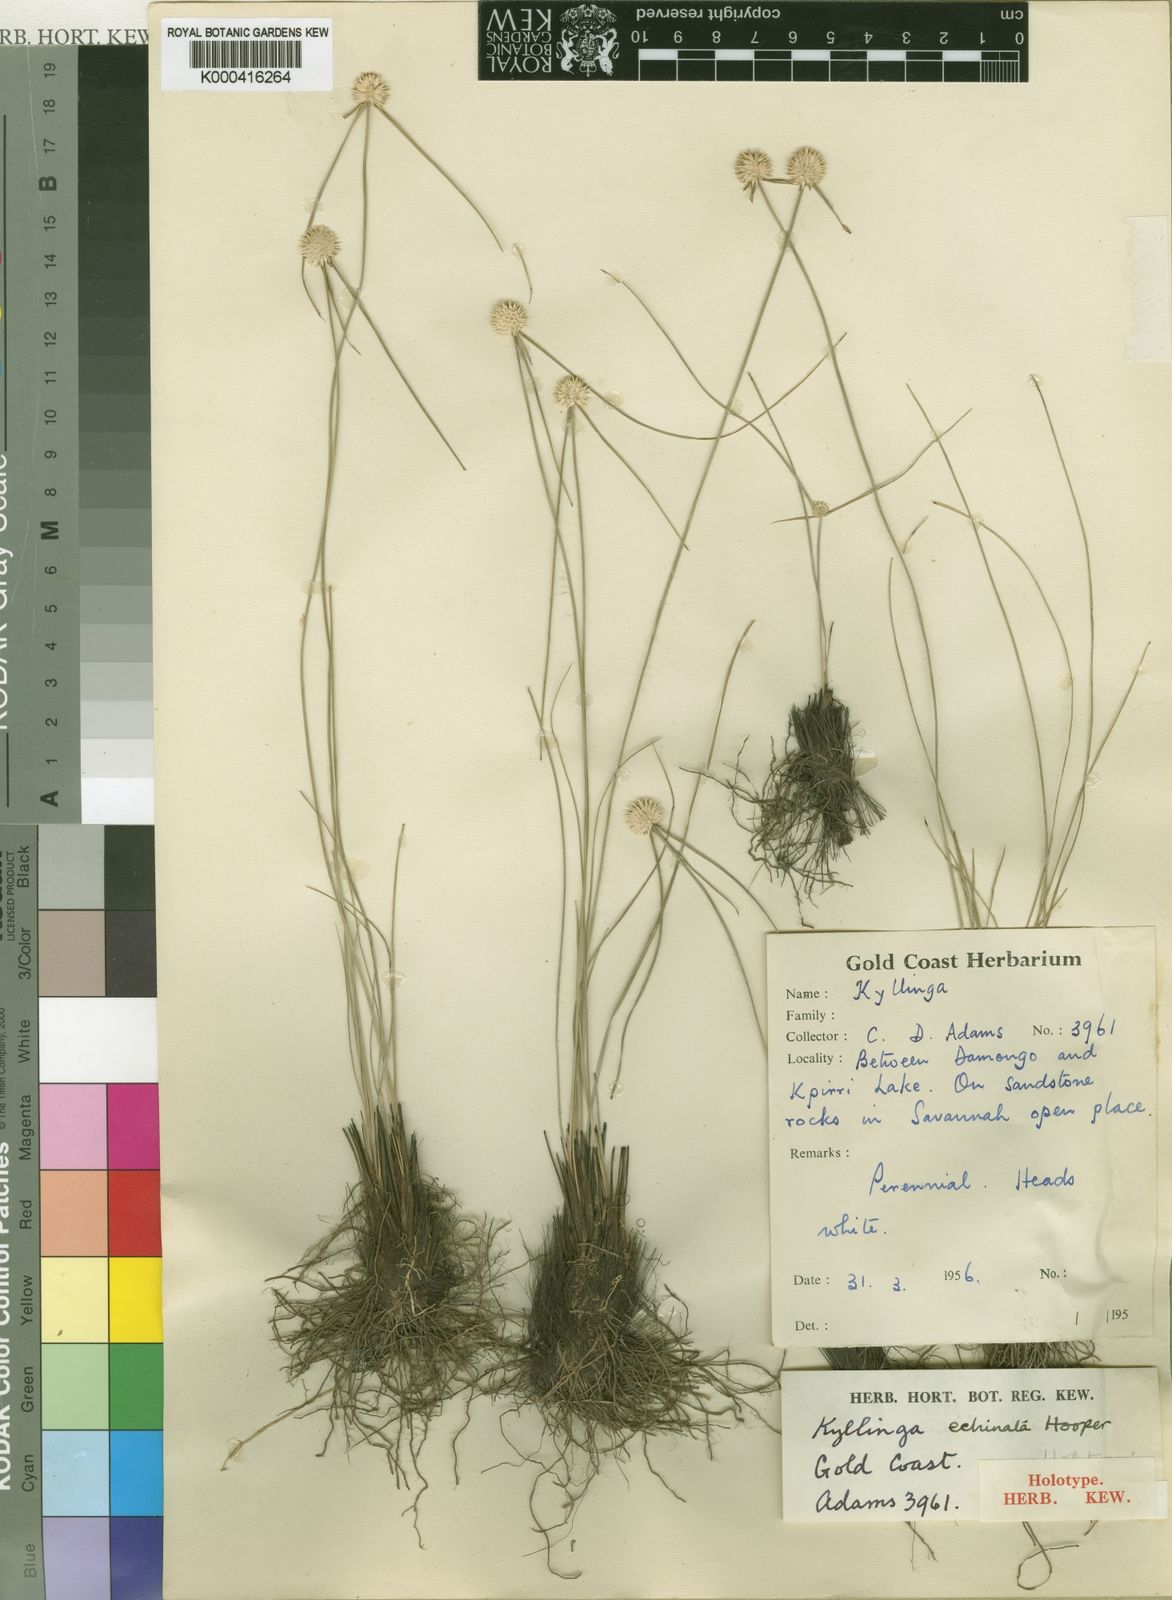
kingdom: Plantae
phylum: Tracheophyta
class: Liliopsida
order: Poales
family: Cyperaceae
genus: Cyperus
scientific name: Cyperus afroechinatus
